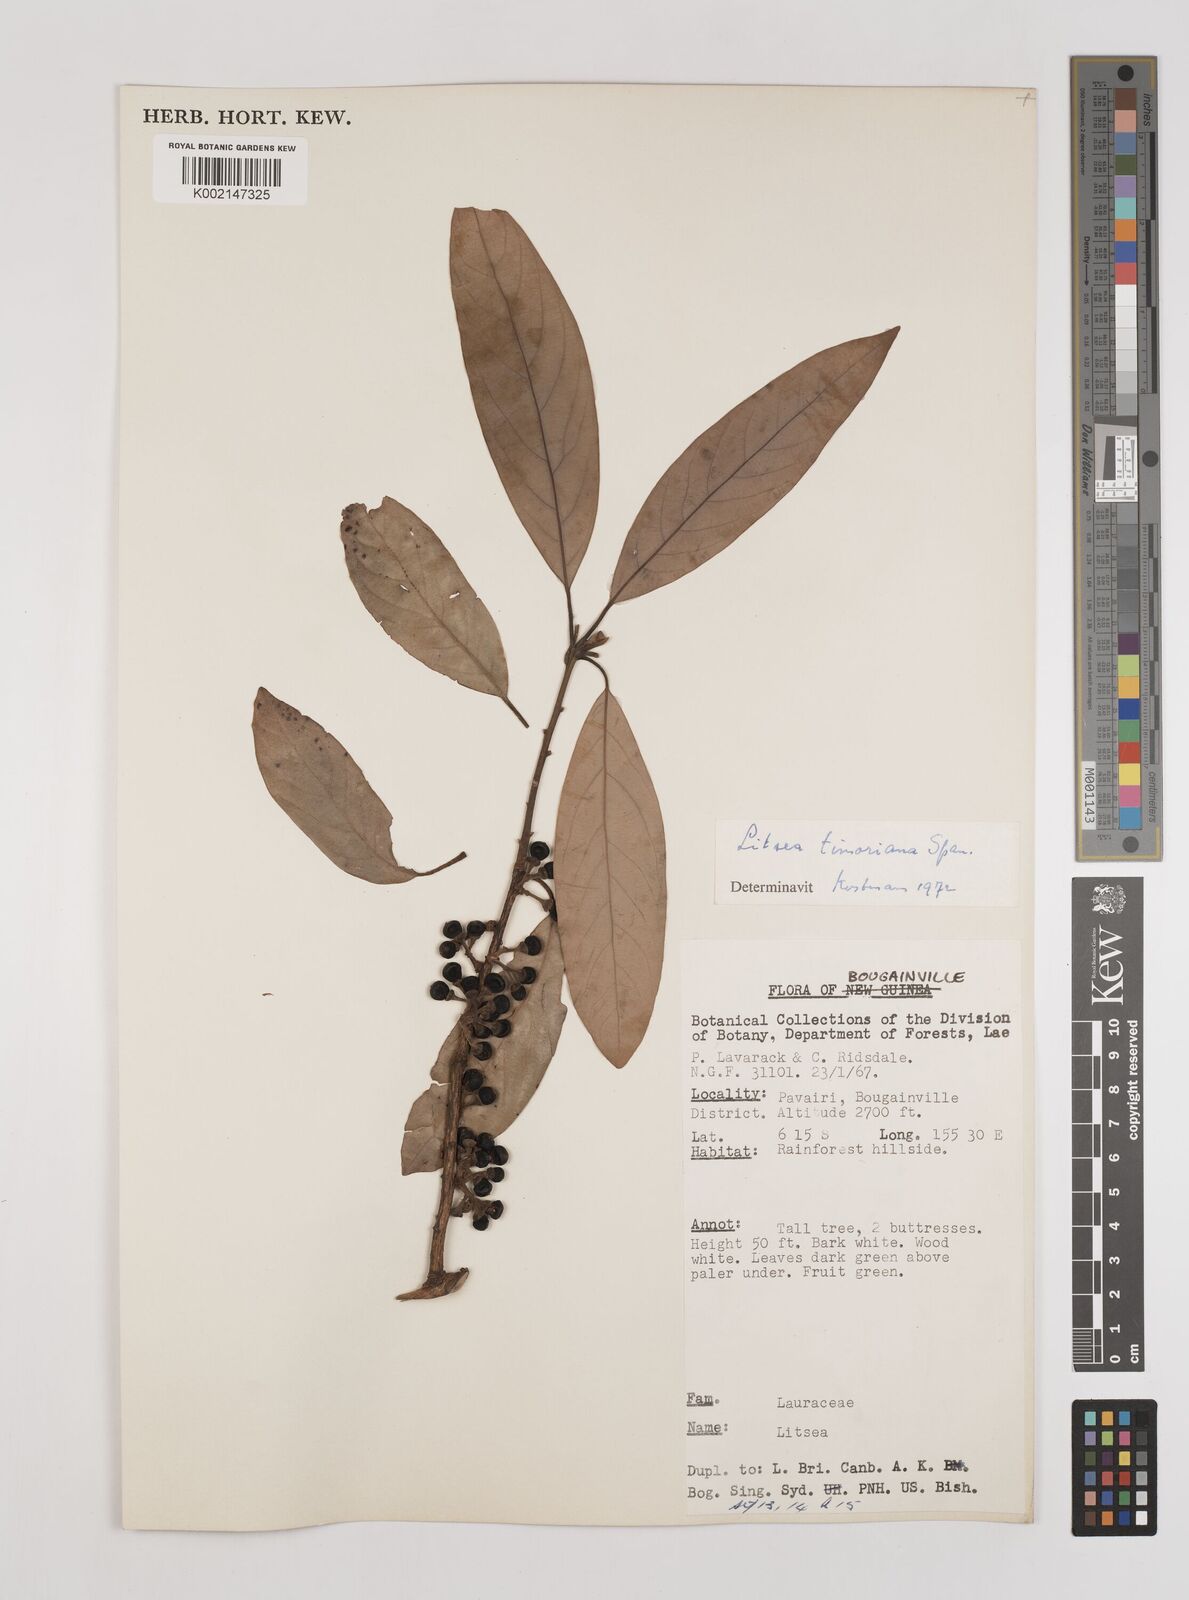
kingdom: Plantae
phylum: Tracheophyta
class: Magnoliopsida
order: Laurales
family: Lauraceae
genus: Litsea
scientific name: Litsea timoriana
